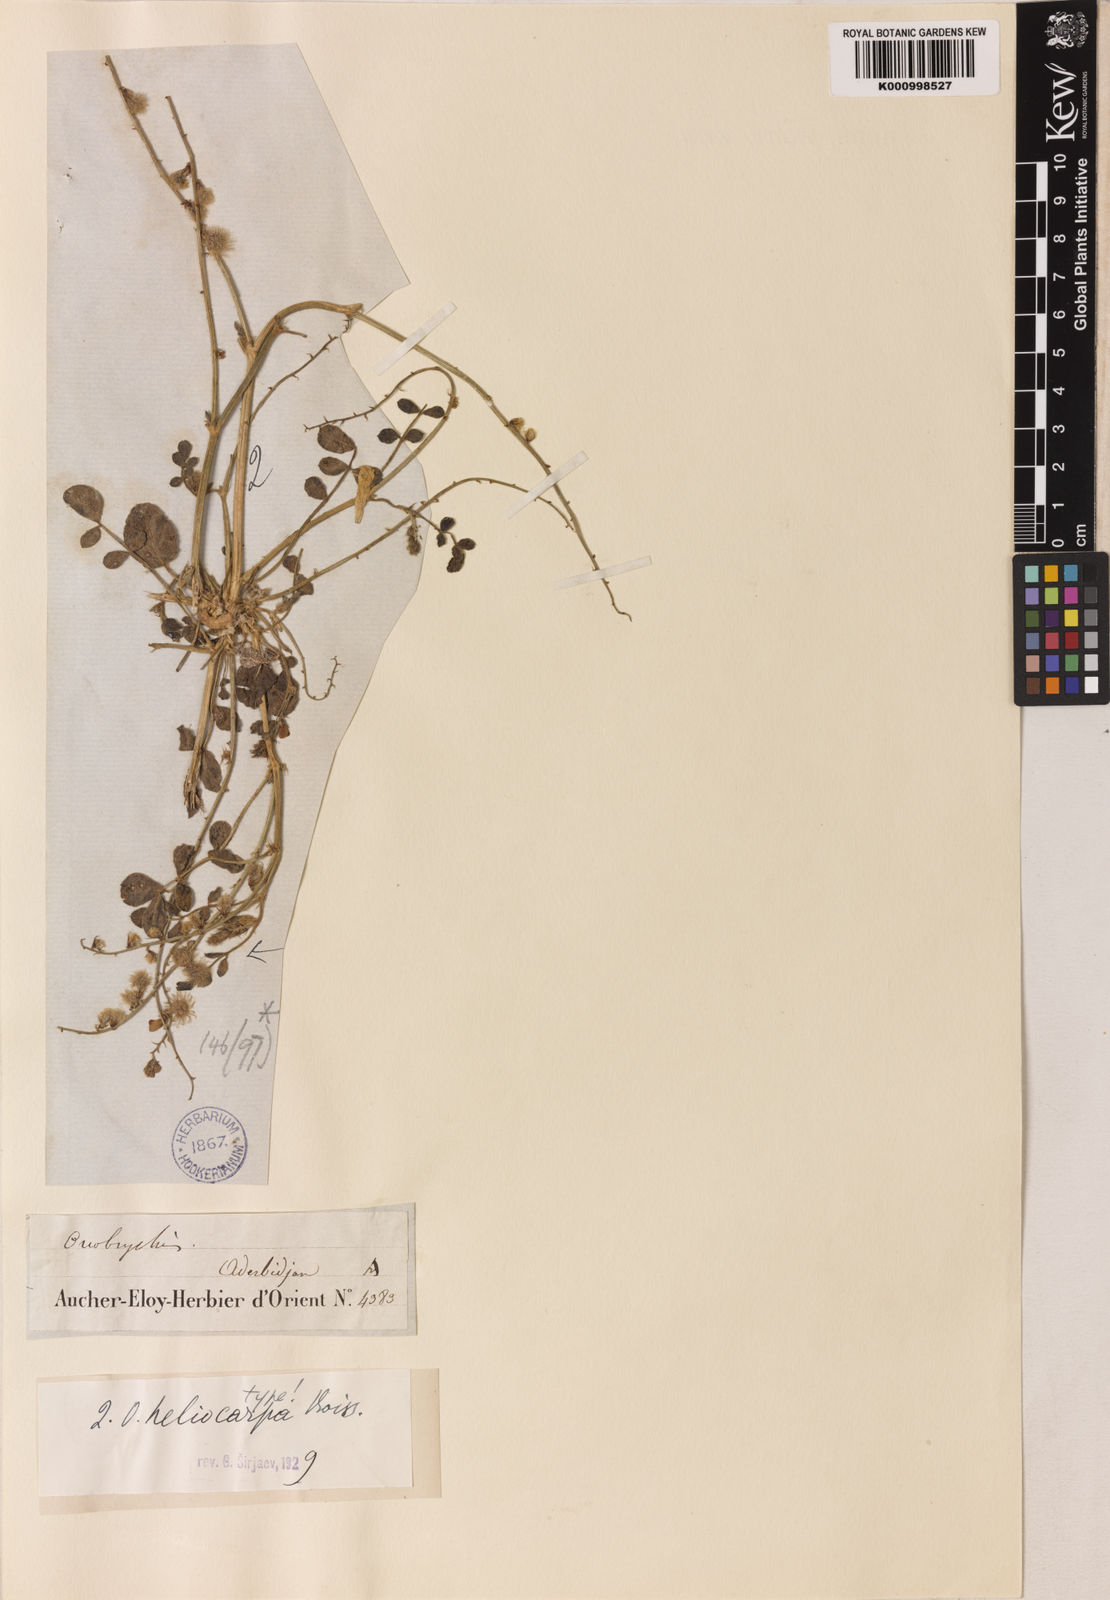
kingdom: Plantae
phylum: Tracheophyta
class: Magnoliopsida
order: Fabales
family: Fabaceae
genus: Onobrychis
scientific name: Onobrychis heliocarpa
